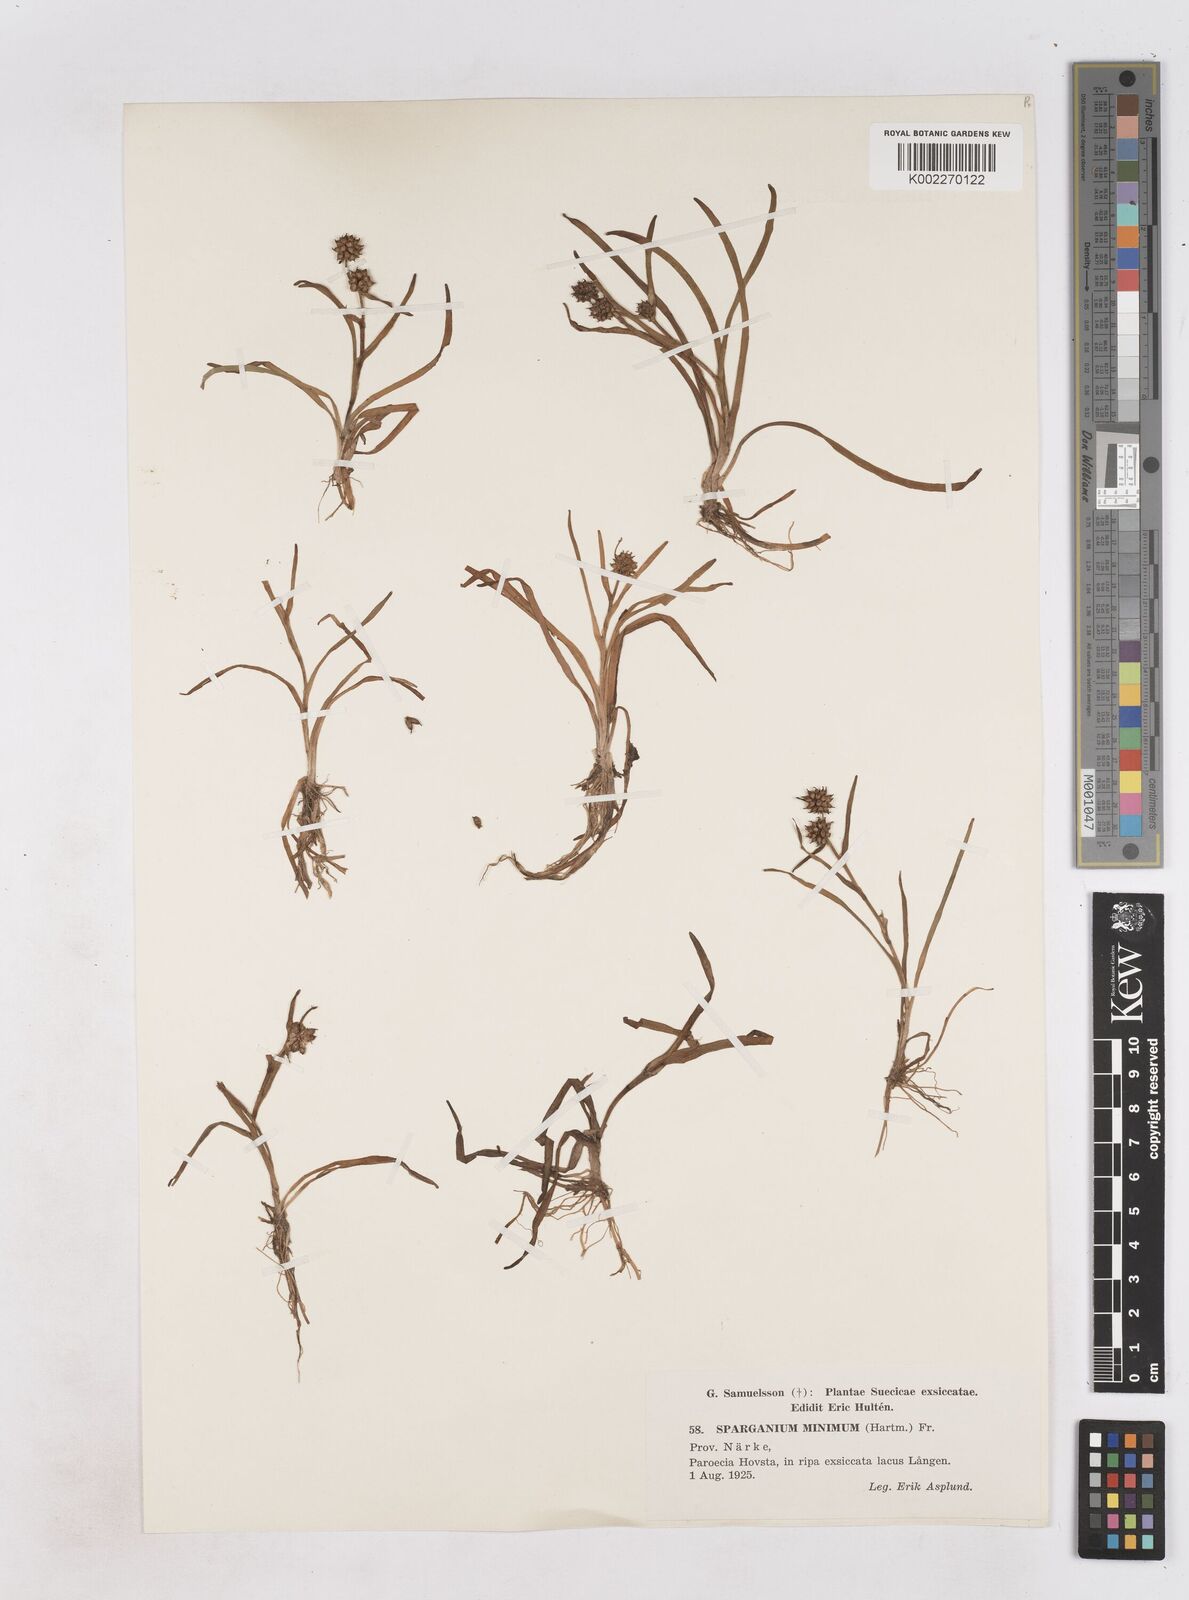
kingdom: Plantae
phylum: Tracheophyta
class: Liliopsida
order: Poales
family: Typhaceae
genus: Sparganium
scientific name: Sparganium natans
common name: Least bur-reed
